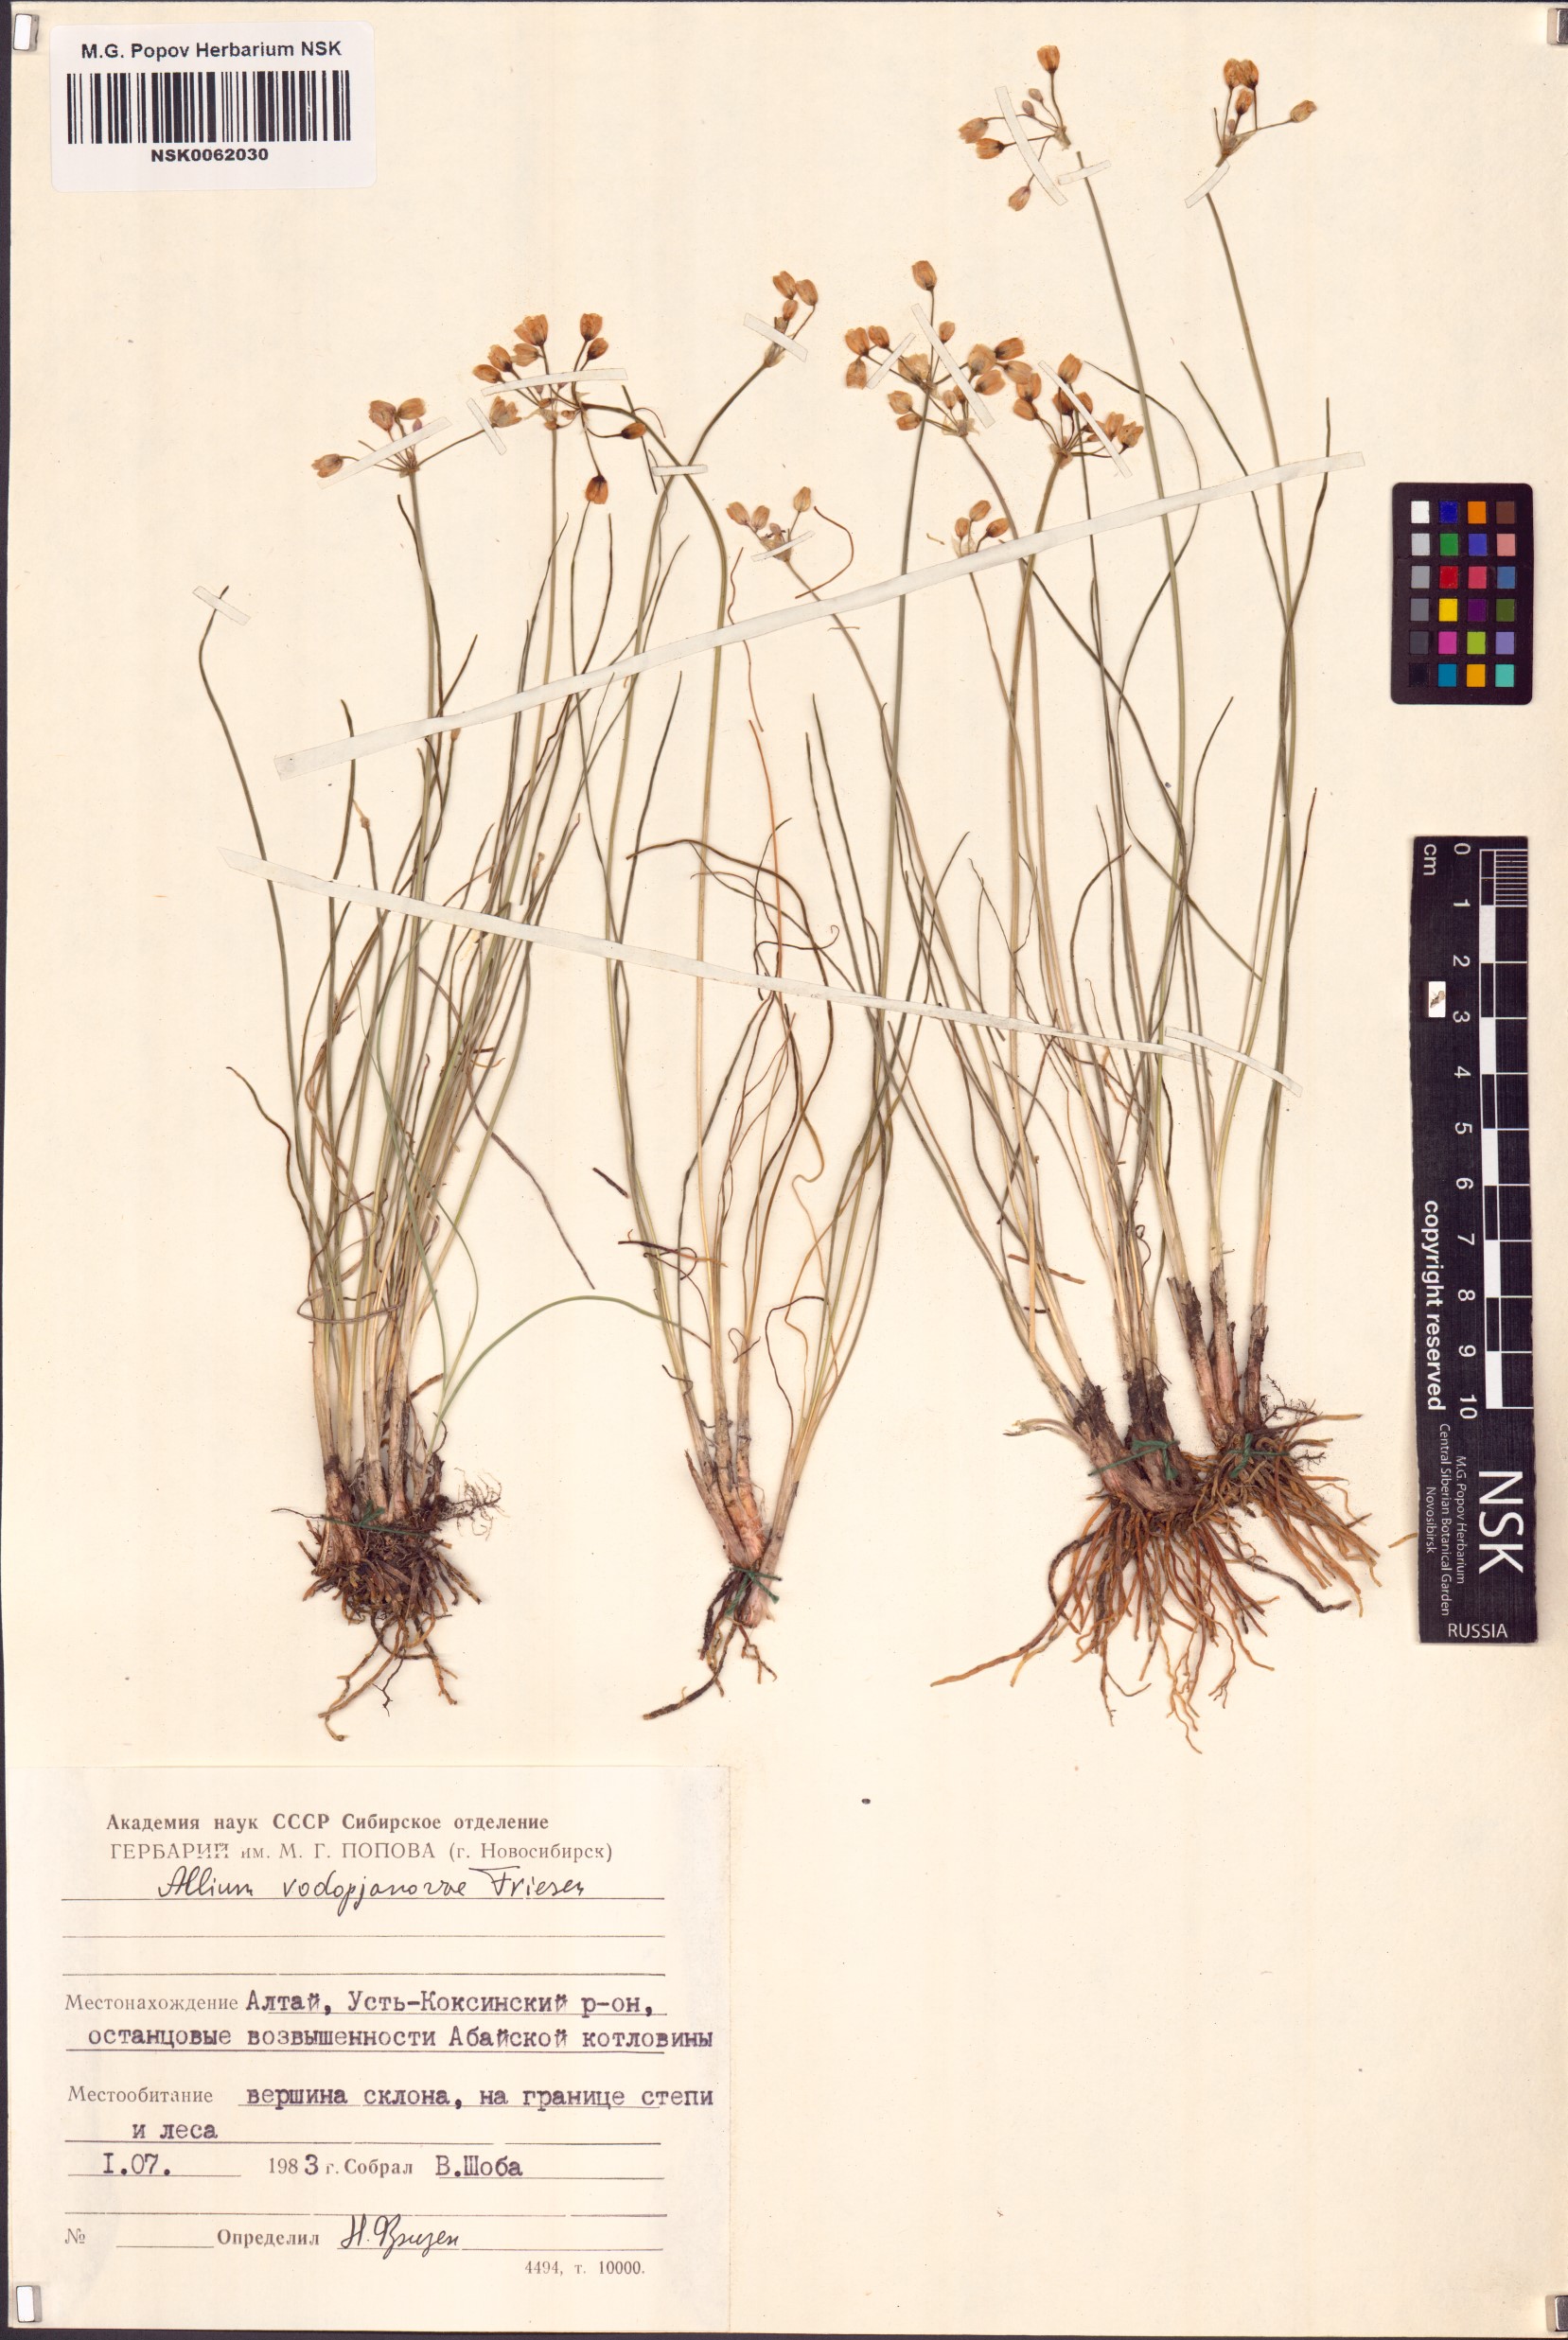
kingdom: Plantae
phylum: Tracheophyta
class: Liliopsida
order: Asparagales
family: Amaryllidaceae
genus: Allium
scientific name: Allium vodopjanovae
